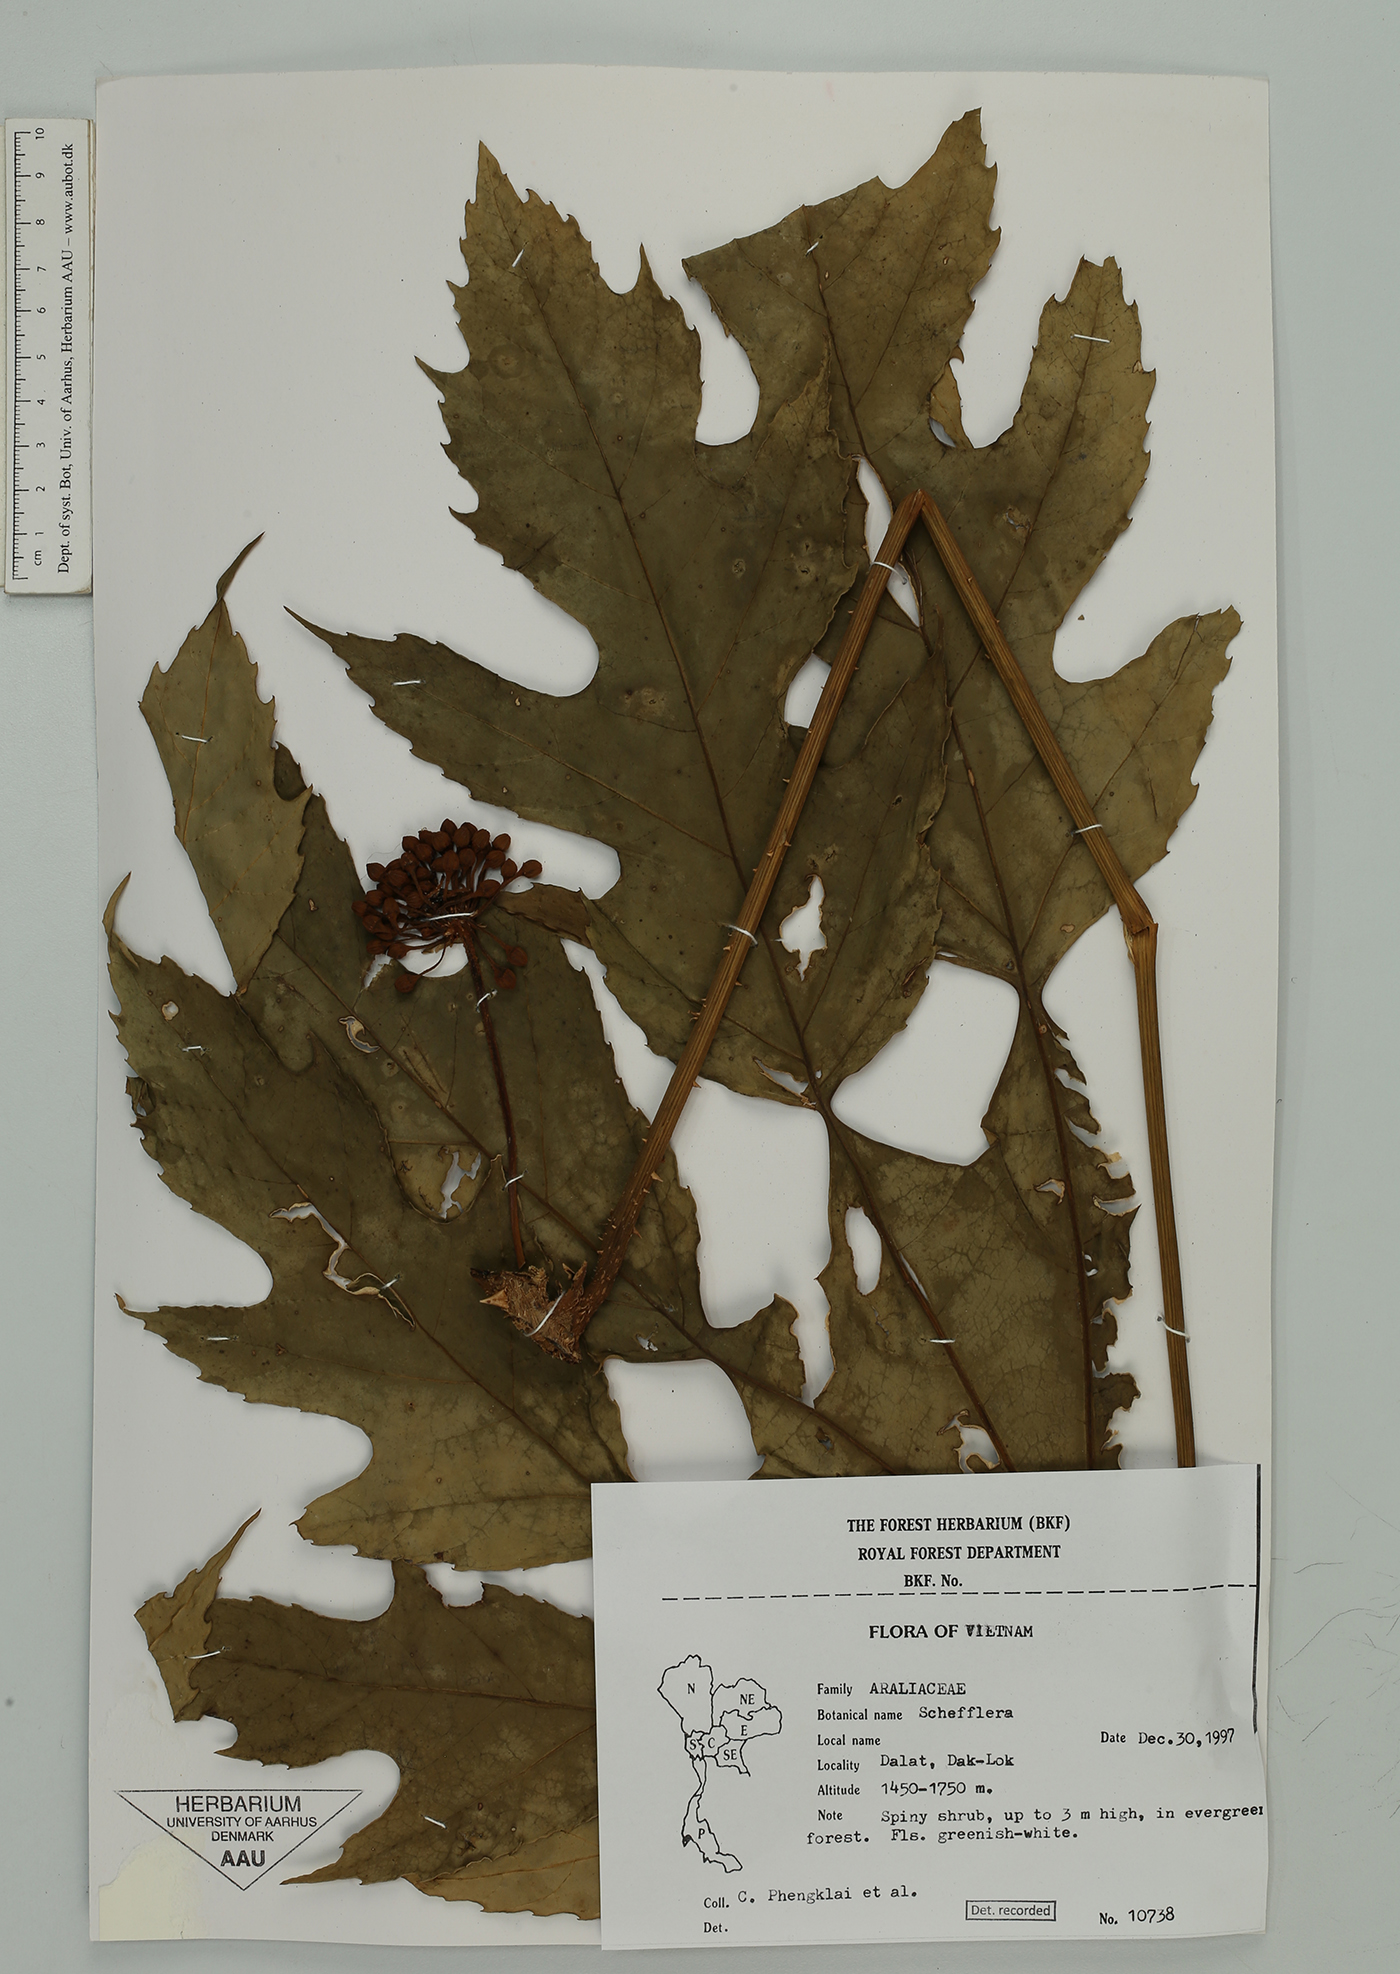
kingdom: Plantae
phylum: Tracheophyta
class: Magnoliopsida
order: Apiales
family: Araliaceae
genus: Schefflera
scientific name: Schefflera
